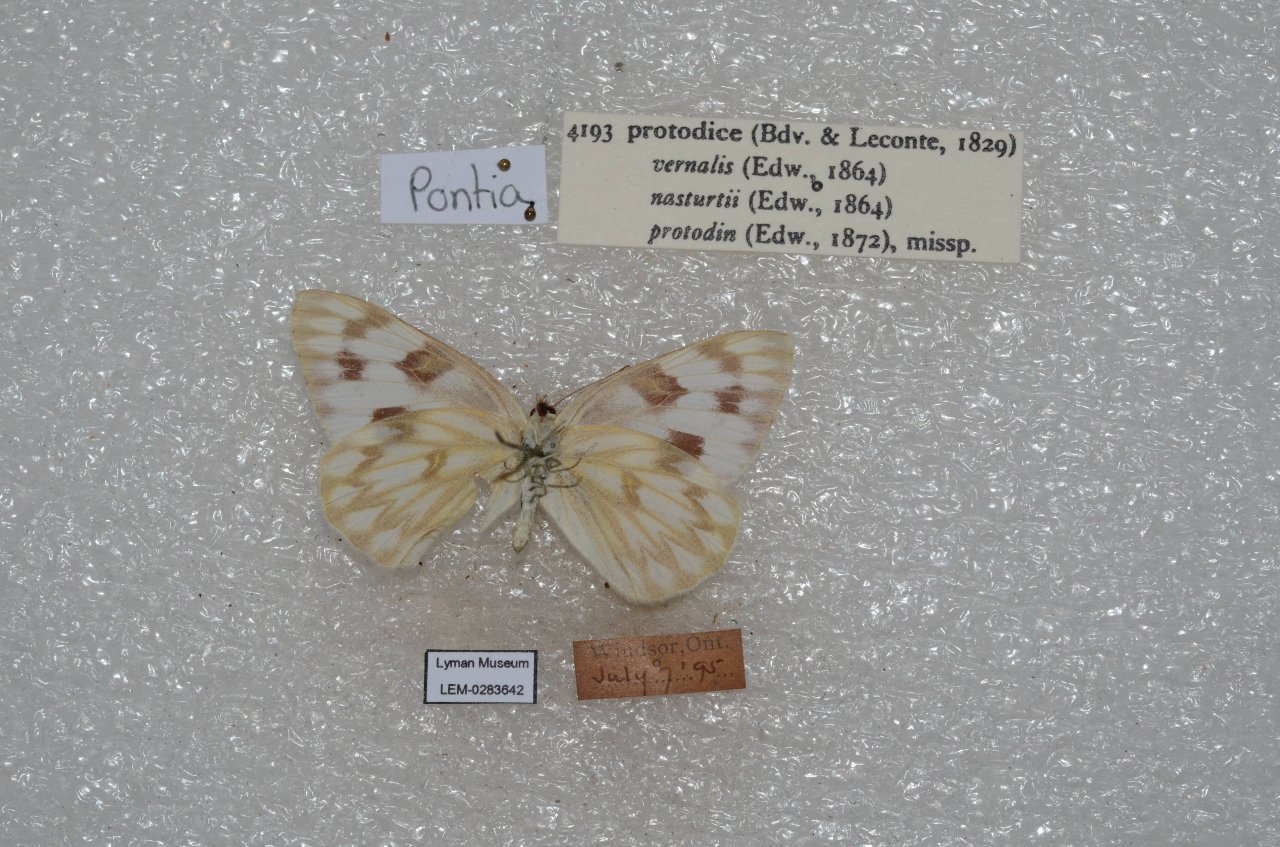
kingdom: Animalia
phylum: Arthropoda
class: Insecta
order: Lepidoptera
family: Pieridae
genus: Pontia
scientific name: Pontia protodice
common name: Checkered White
